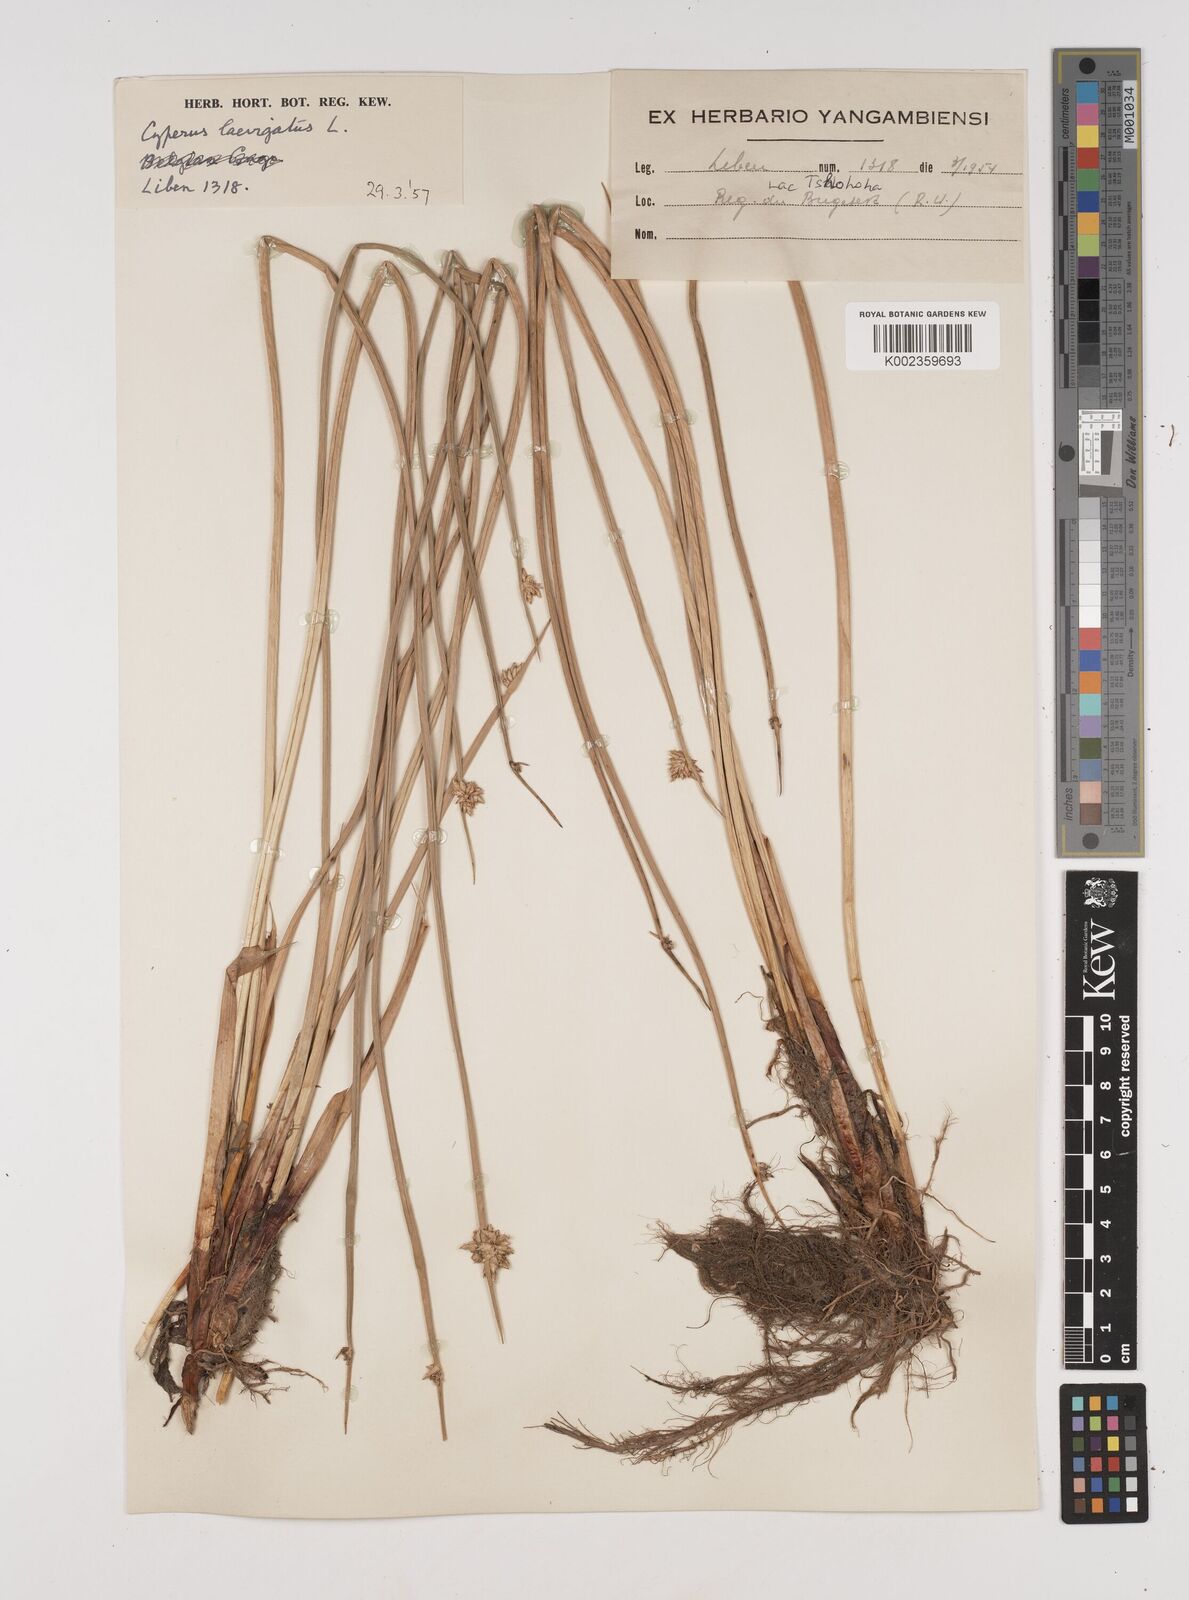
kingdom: Plantae
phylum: Tracheophyta
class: Liliopsida
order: Poales
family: Cyperaceae
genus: Cyperus
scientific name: Cyperus laevigatus
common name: Smooth flat sedge
